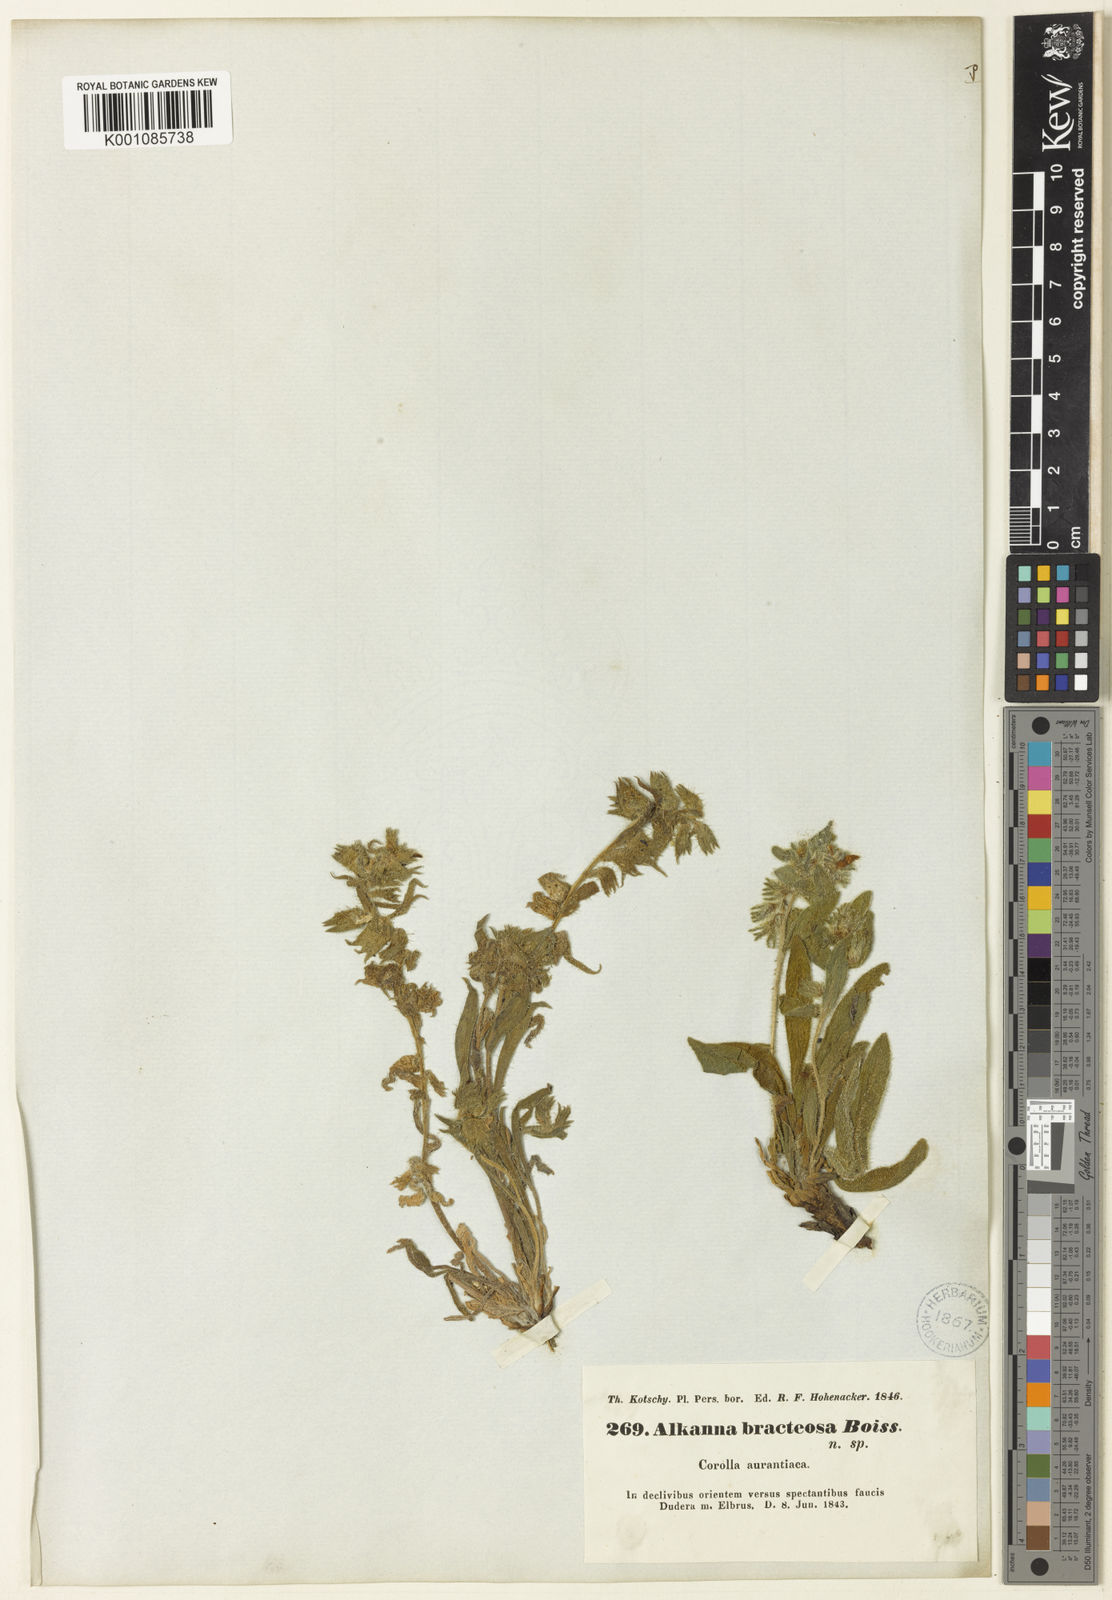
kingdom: Plantae
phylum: Tracheophyta
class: Magnoliopsida
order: Boraginales
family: Boraginaceae
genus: Alkanna
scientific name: Alkanna bracteosa
